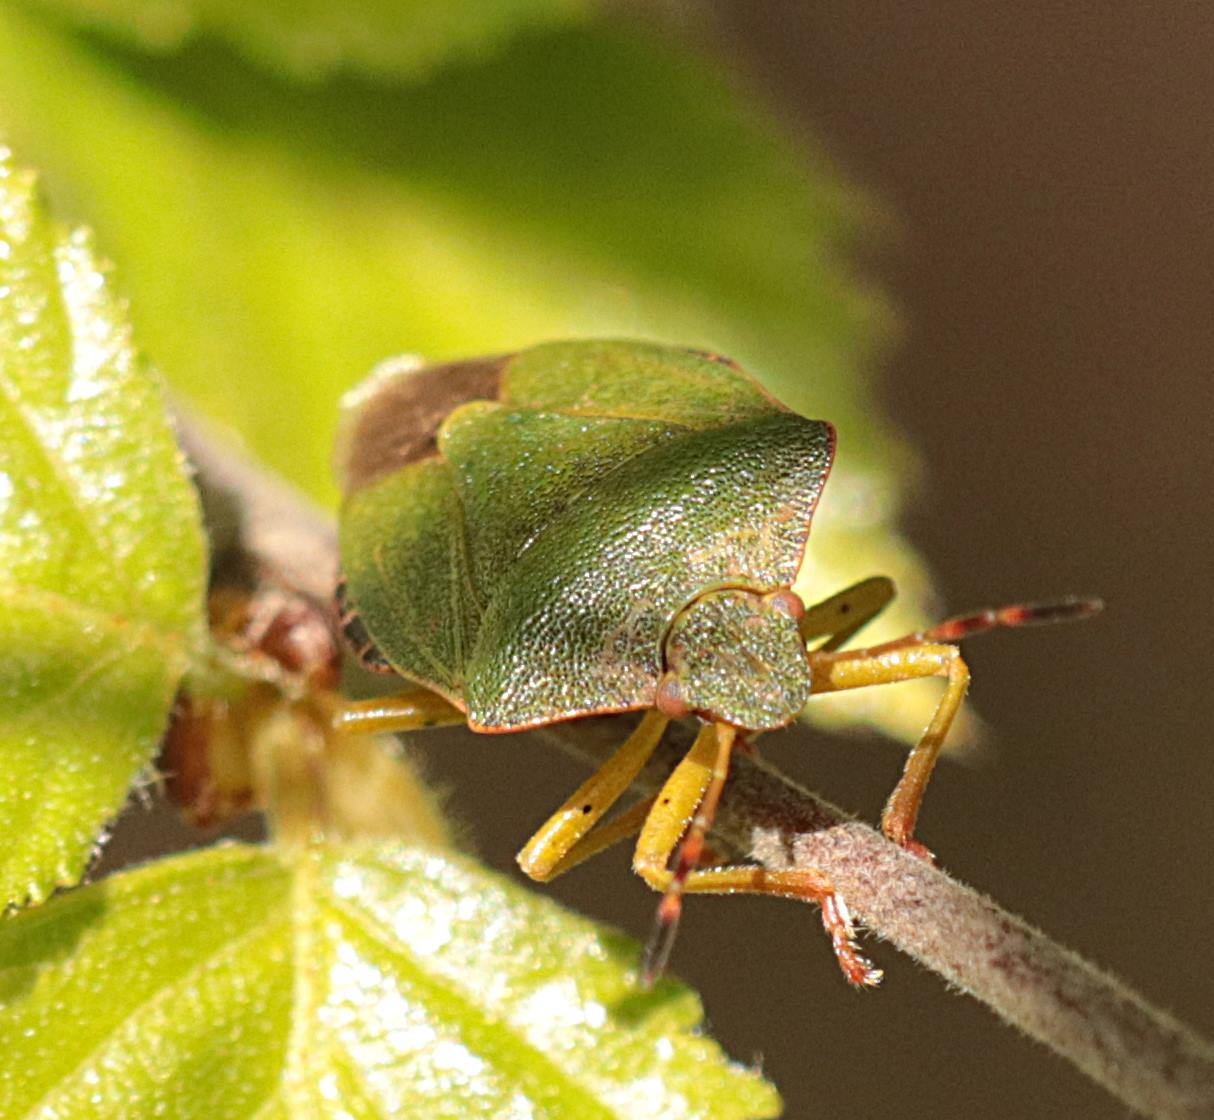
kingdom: Animalia
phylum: Arthropoda
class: Insecta
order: Hemiptera
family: Pentatomidae
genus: Palomena
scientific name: Palomena prasina
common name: Grøn bredtæge
